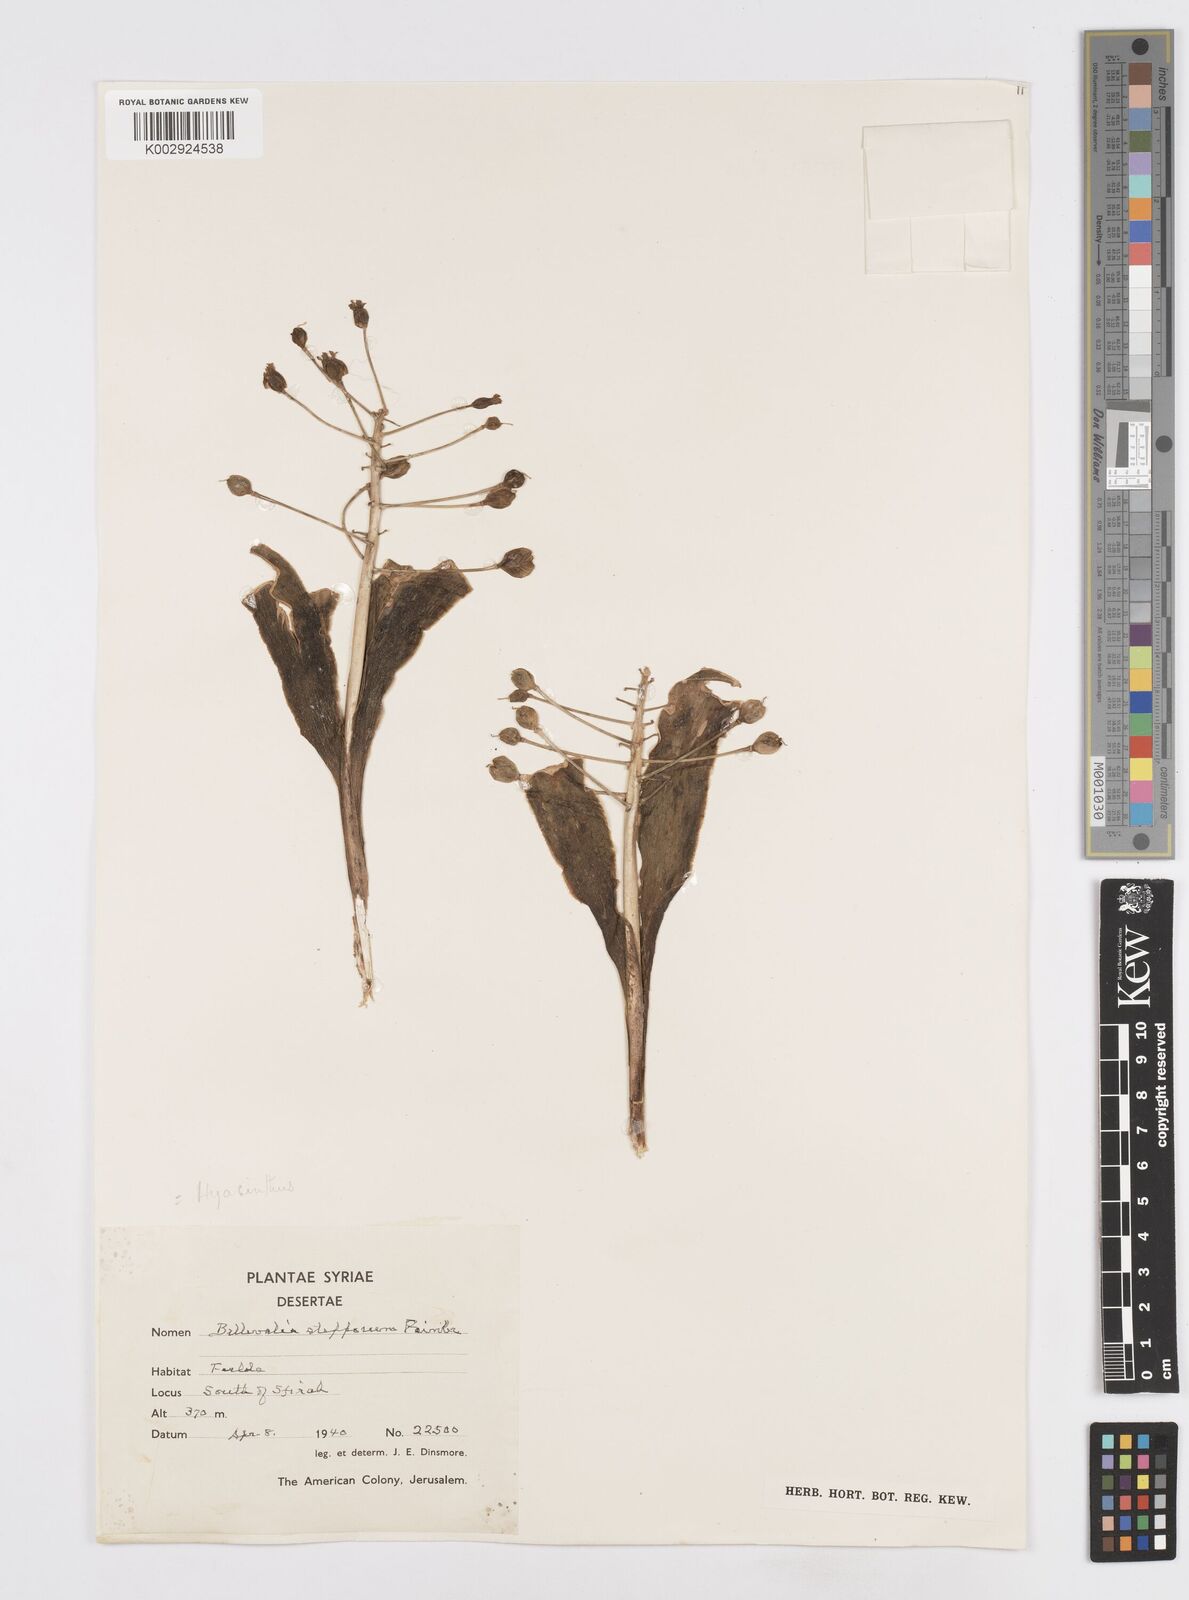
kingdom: Plantae
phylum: Tracheophyta
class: Liliopsida
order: Asparagales
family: Asparagaceae
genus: Bellevalia
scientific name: Bellevalia stepporum
